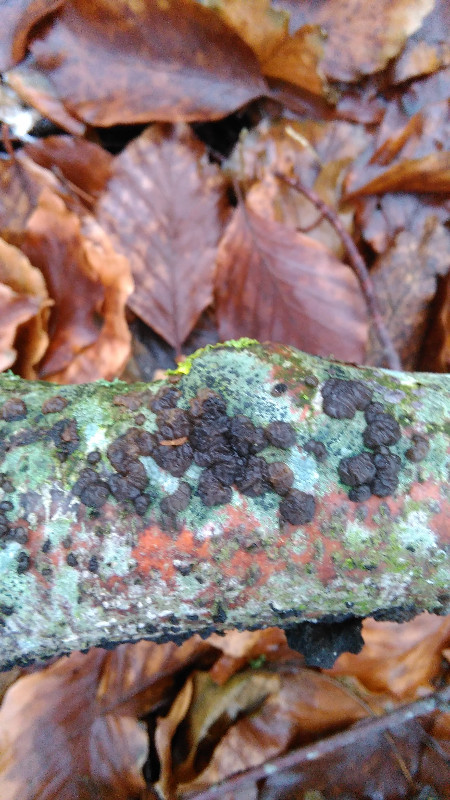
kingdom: Fungi
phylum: Basidiomycota
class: Agaricomycetes
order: Auriculariales
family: Auriculariaceae
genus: Exidia
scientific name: Exidia nigricans
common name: almindelig bævretop
